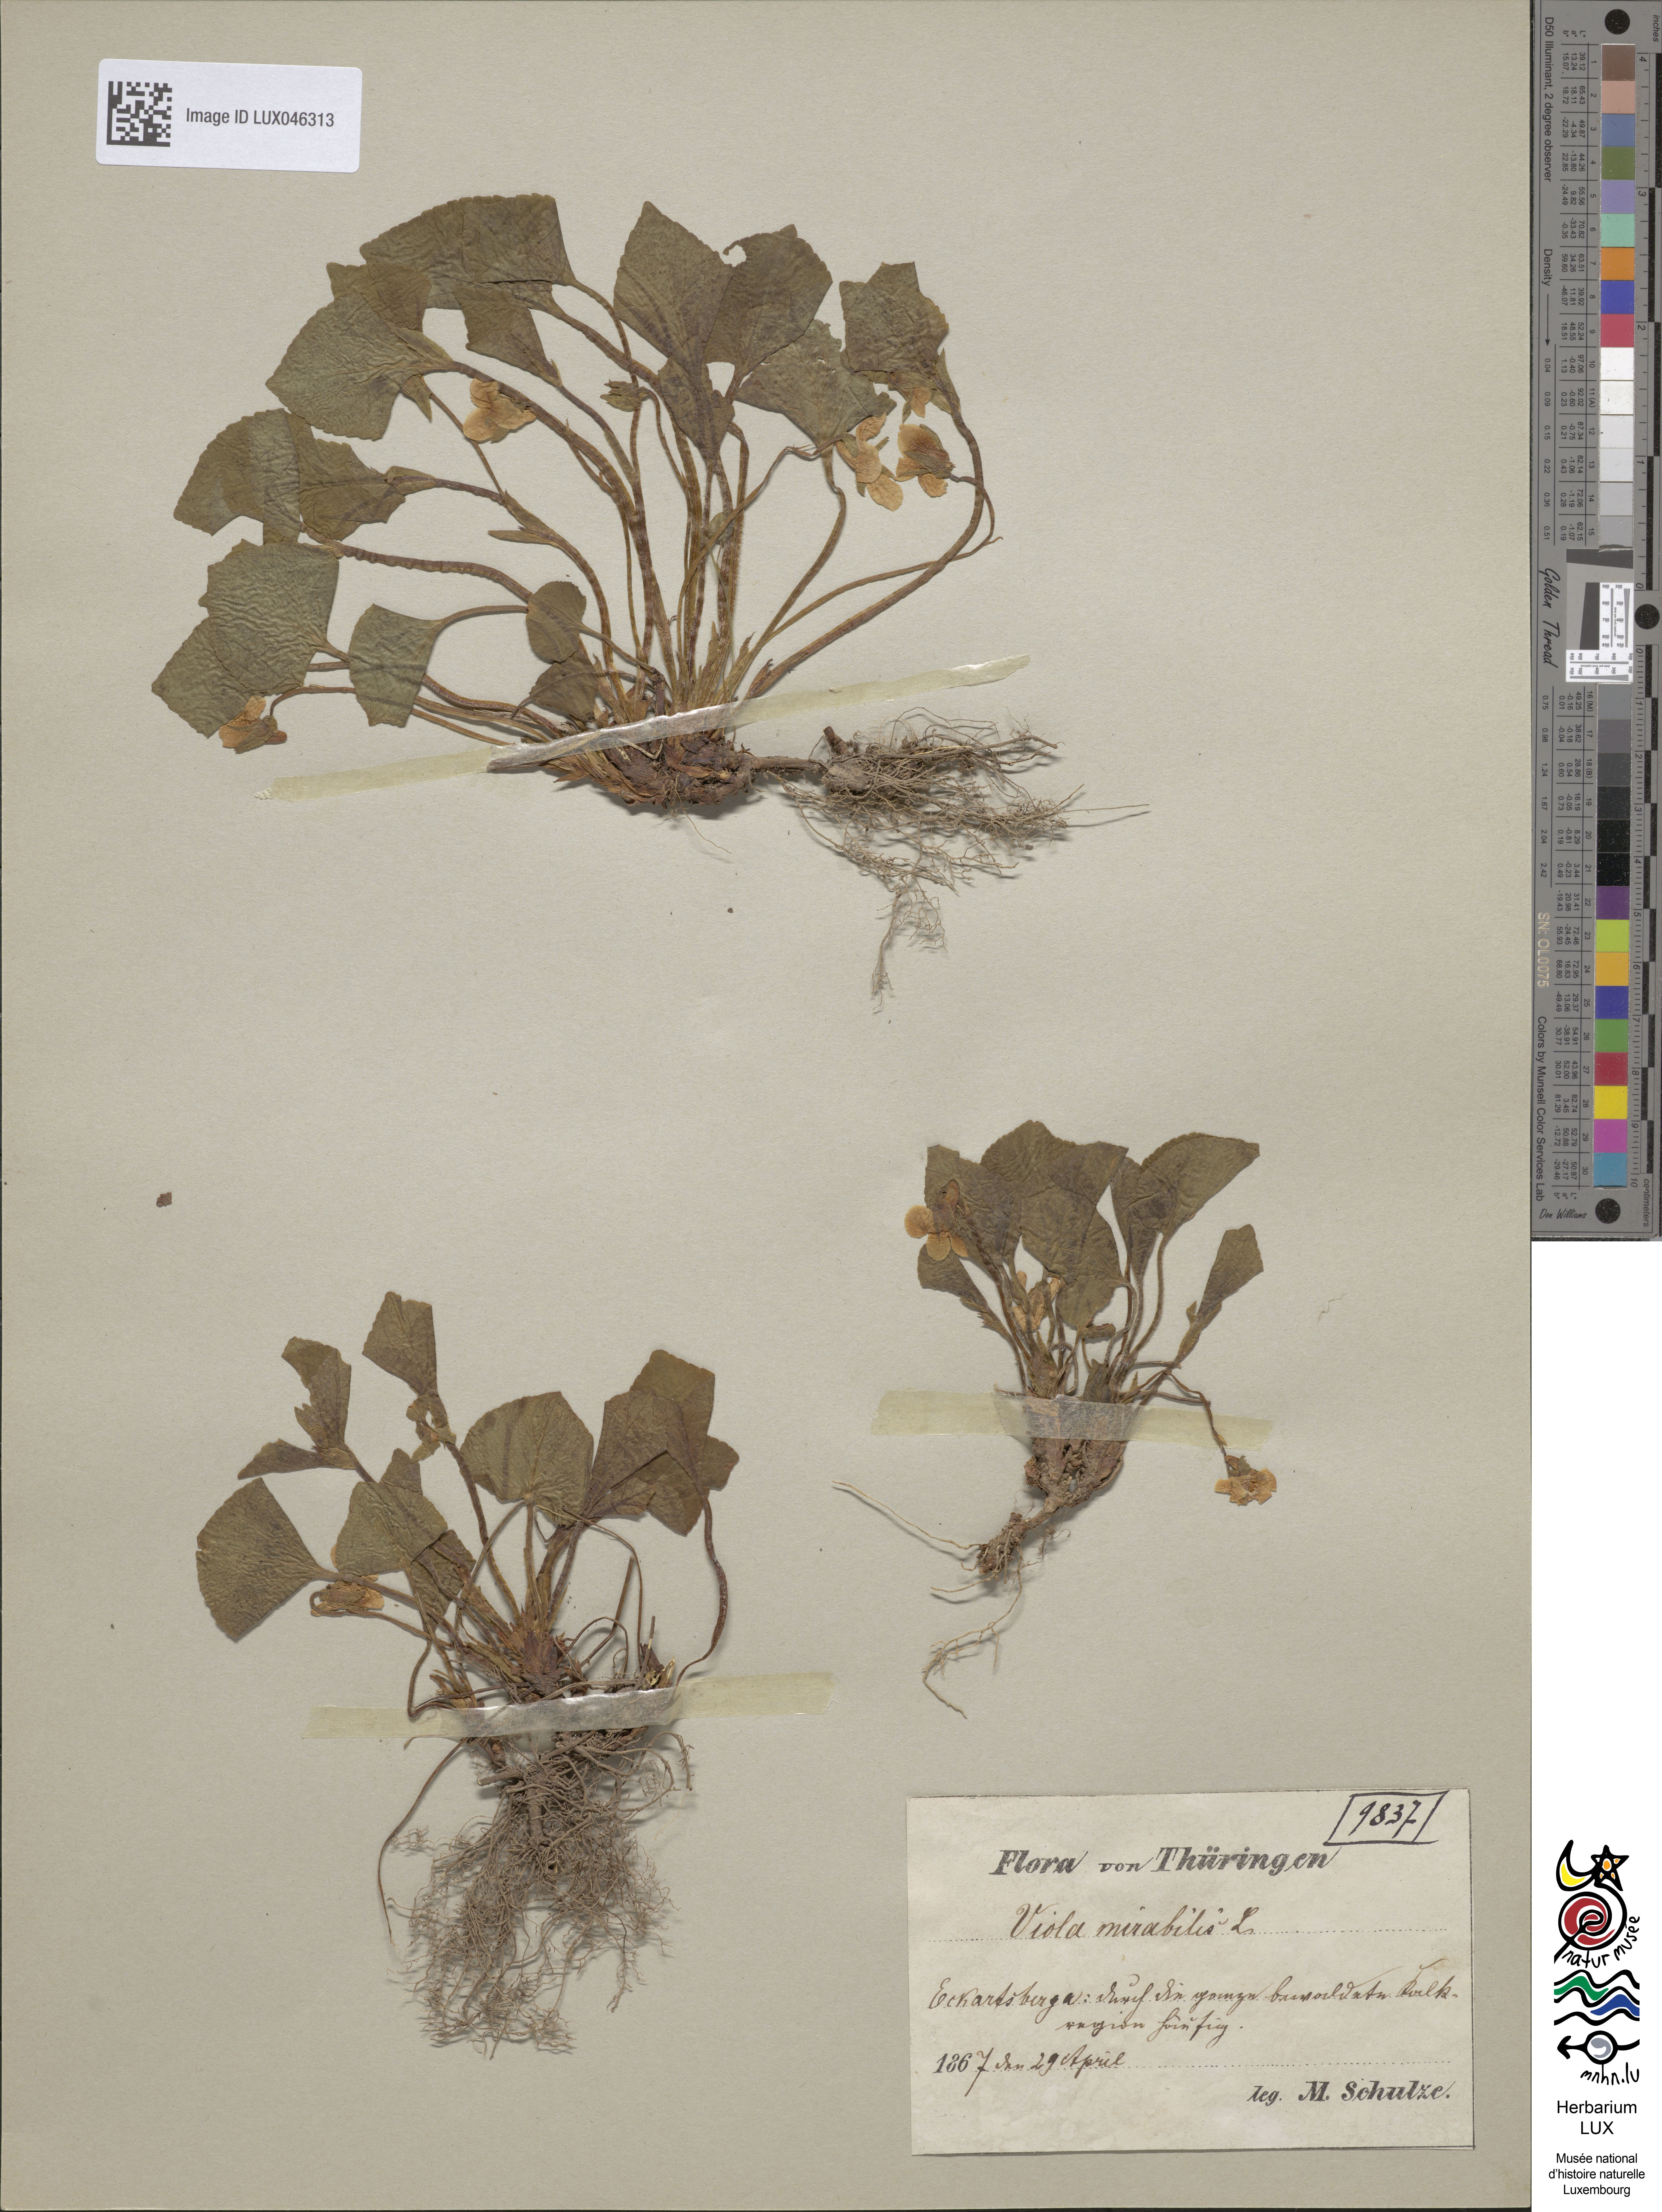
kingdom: Plantae
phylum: Tracheophyta
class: Magnoliopsida
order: Malpighiales
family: Violaceae
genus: Viola
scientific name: Viola mirabilis
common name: Wonder violet
